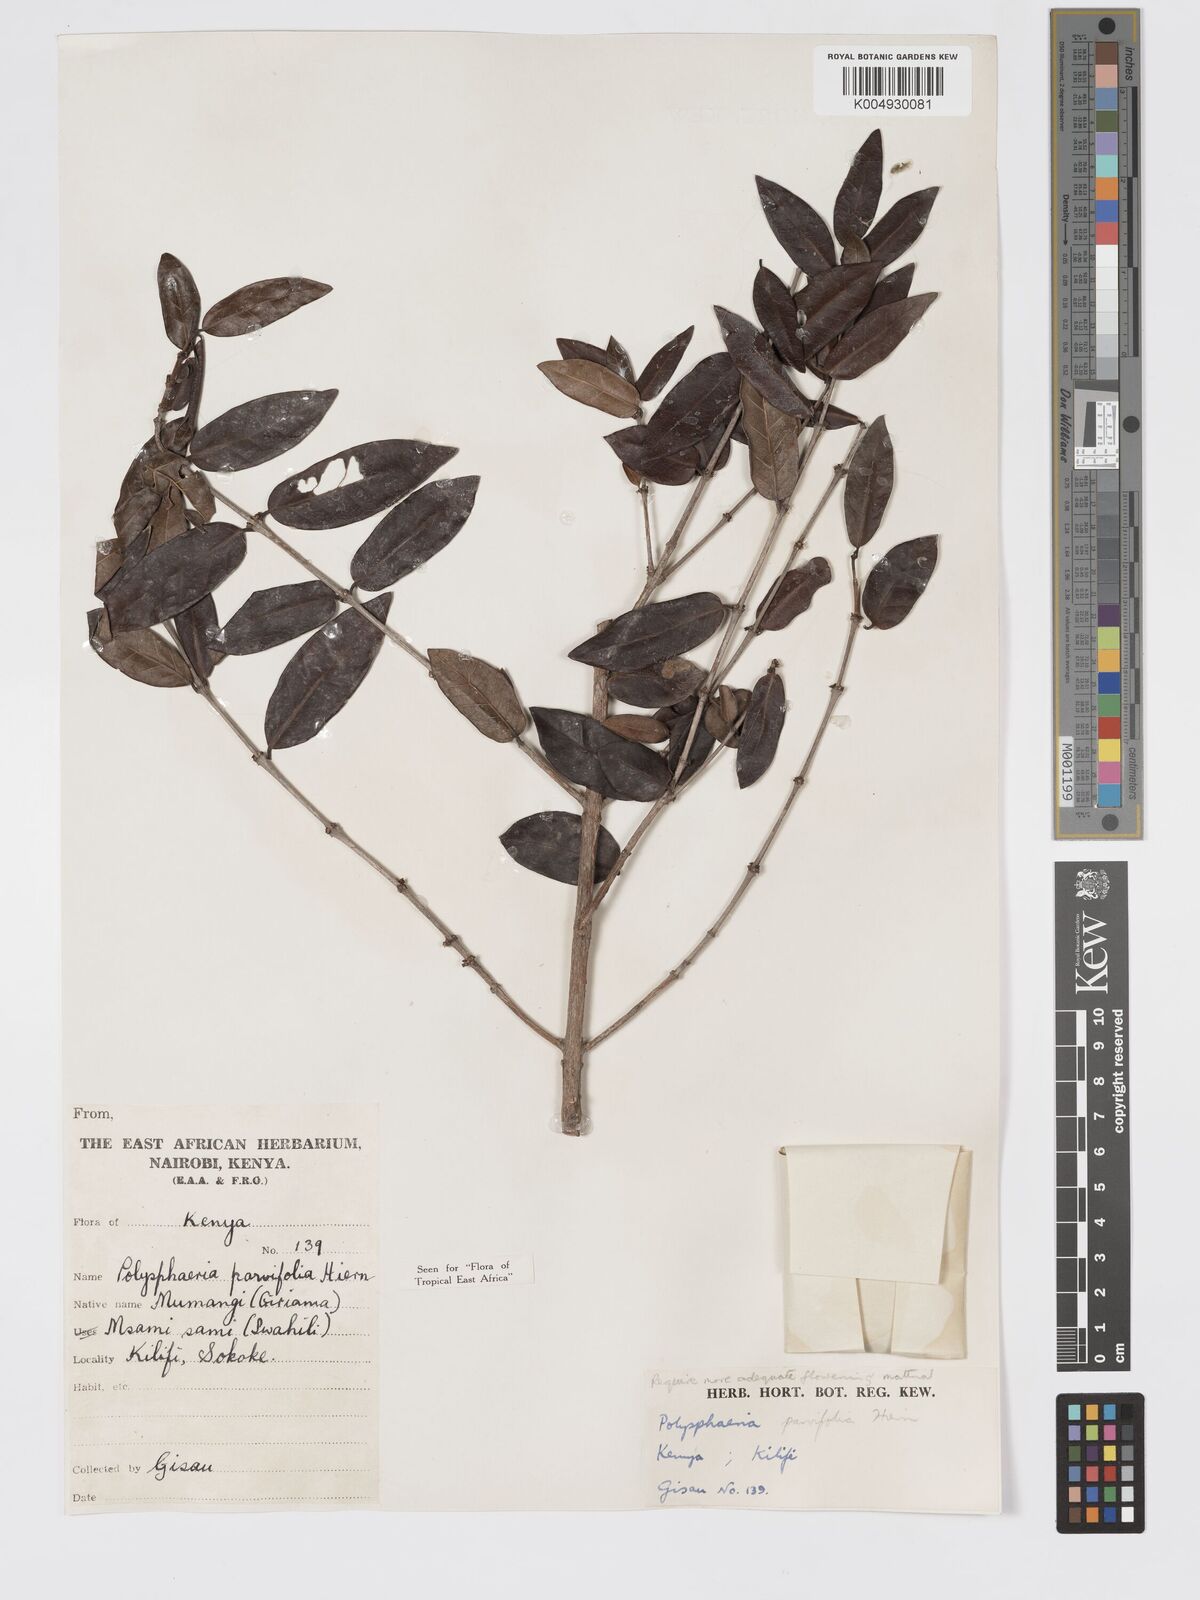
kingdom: Plantae
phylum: Tracheophyta
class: Magnoliopsida
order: Gentianales
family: Rubiaceae
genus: Polysphaeria
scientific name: Polysphaeria parvifolia
